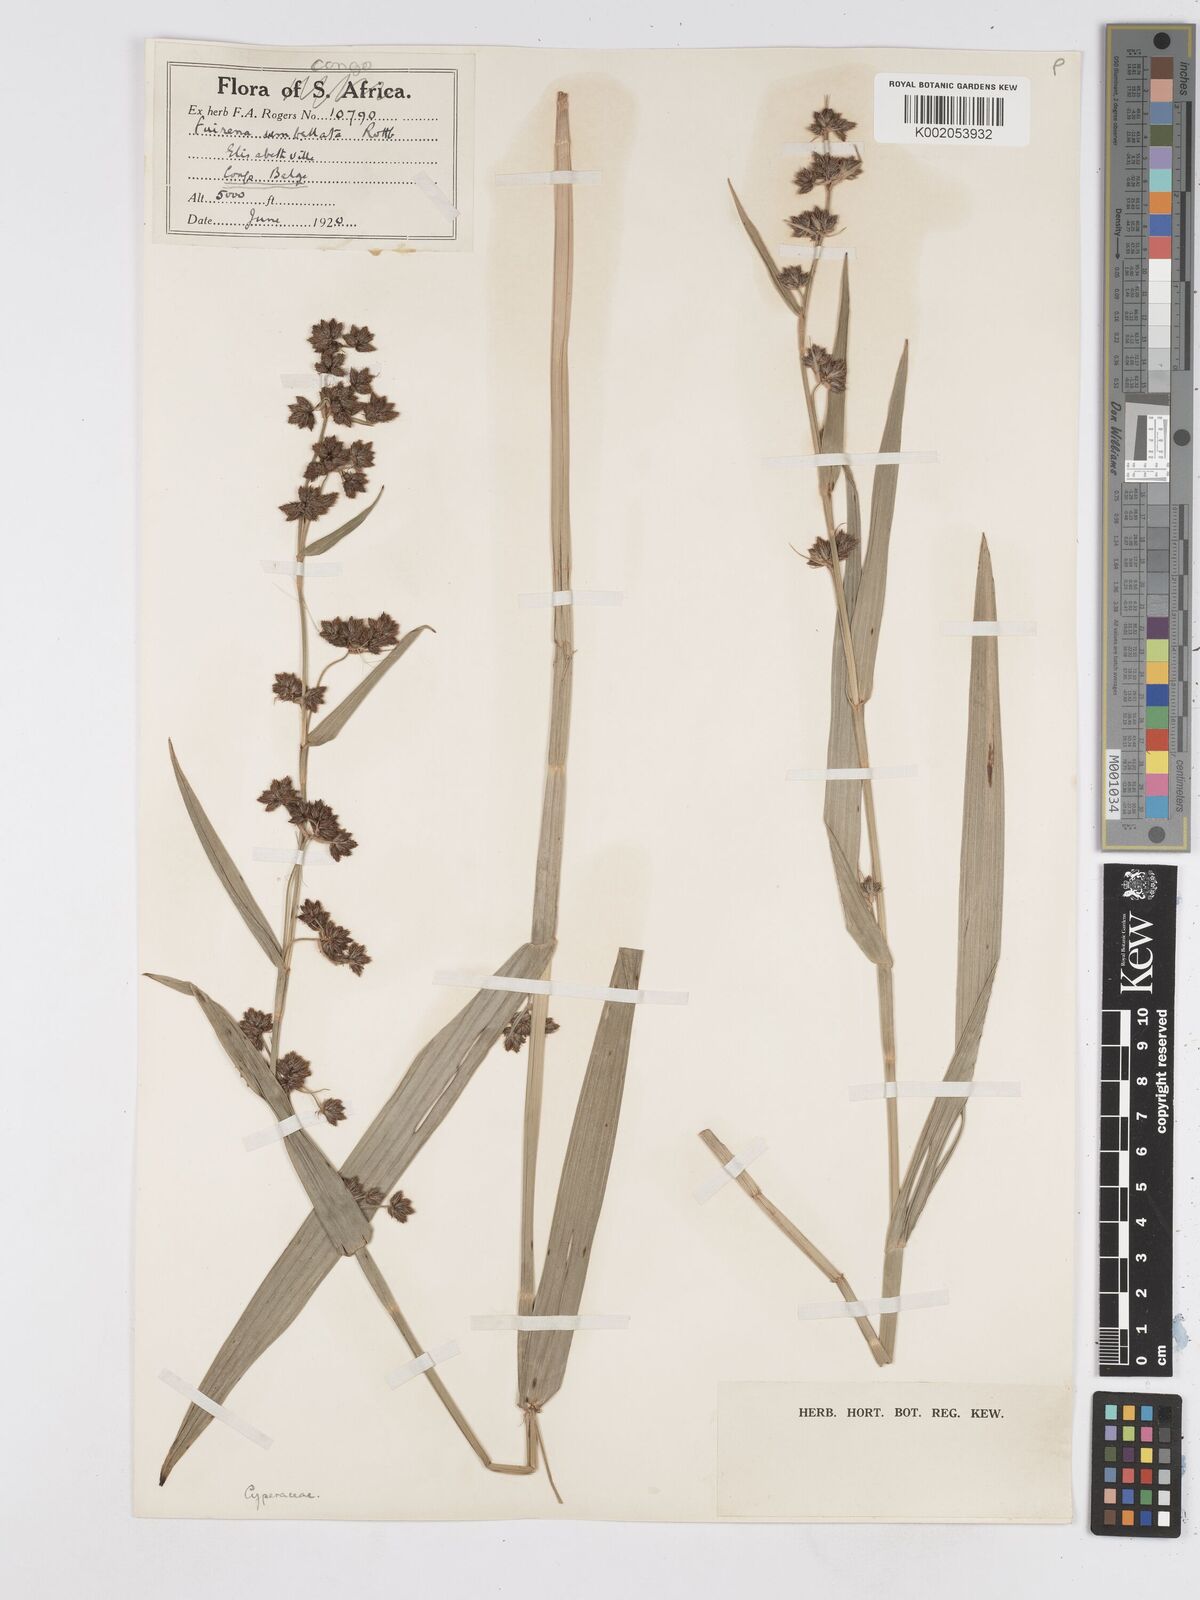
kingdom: Plantae
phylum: Tracheophyta
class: Liliopsida
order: Poales
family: Cyperaceae
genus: Fuirena
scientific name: Fuirena umbellata
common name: Yefen
